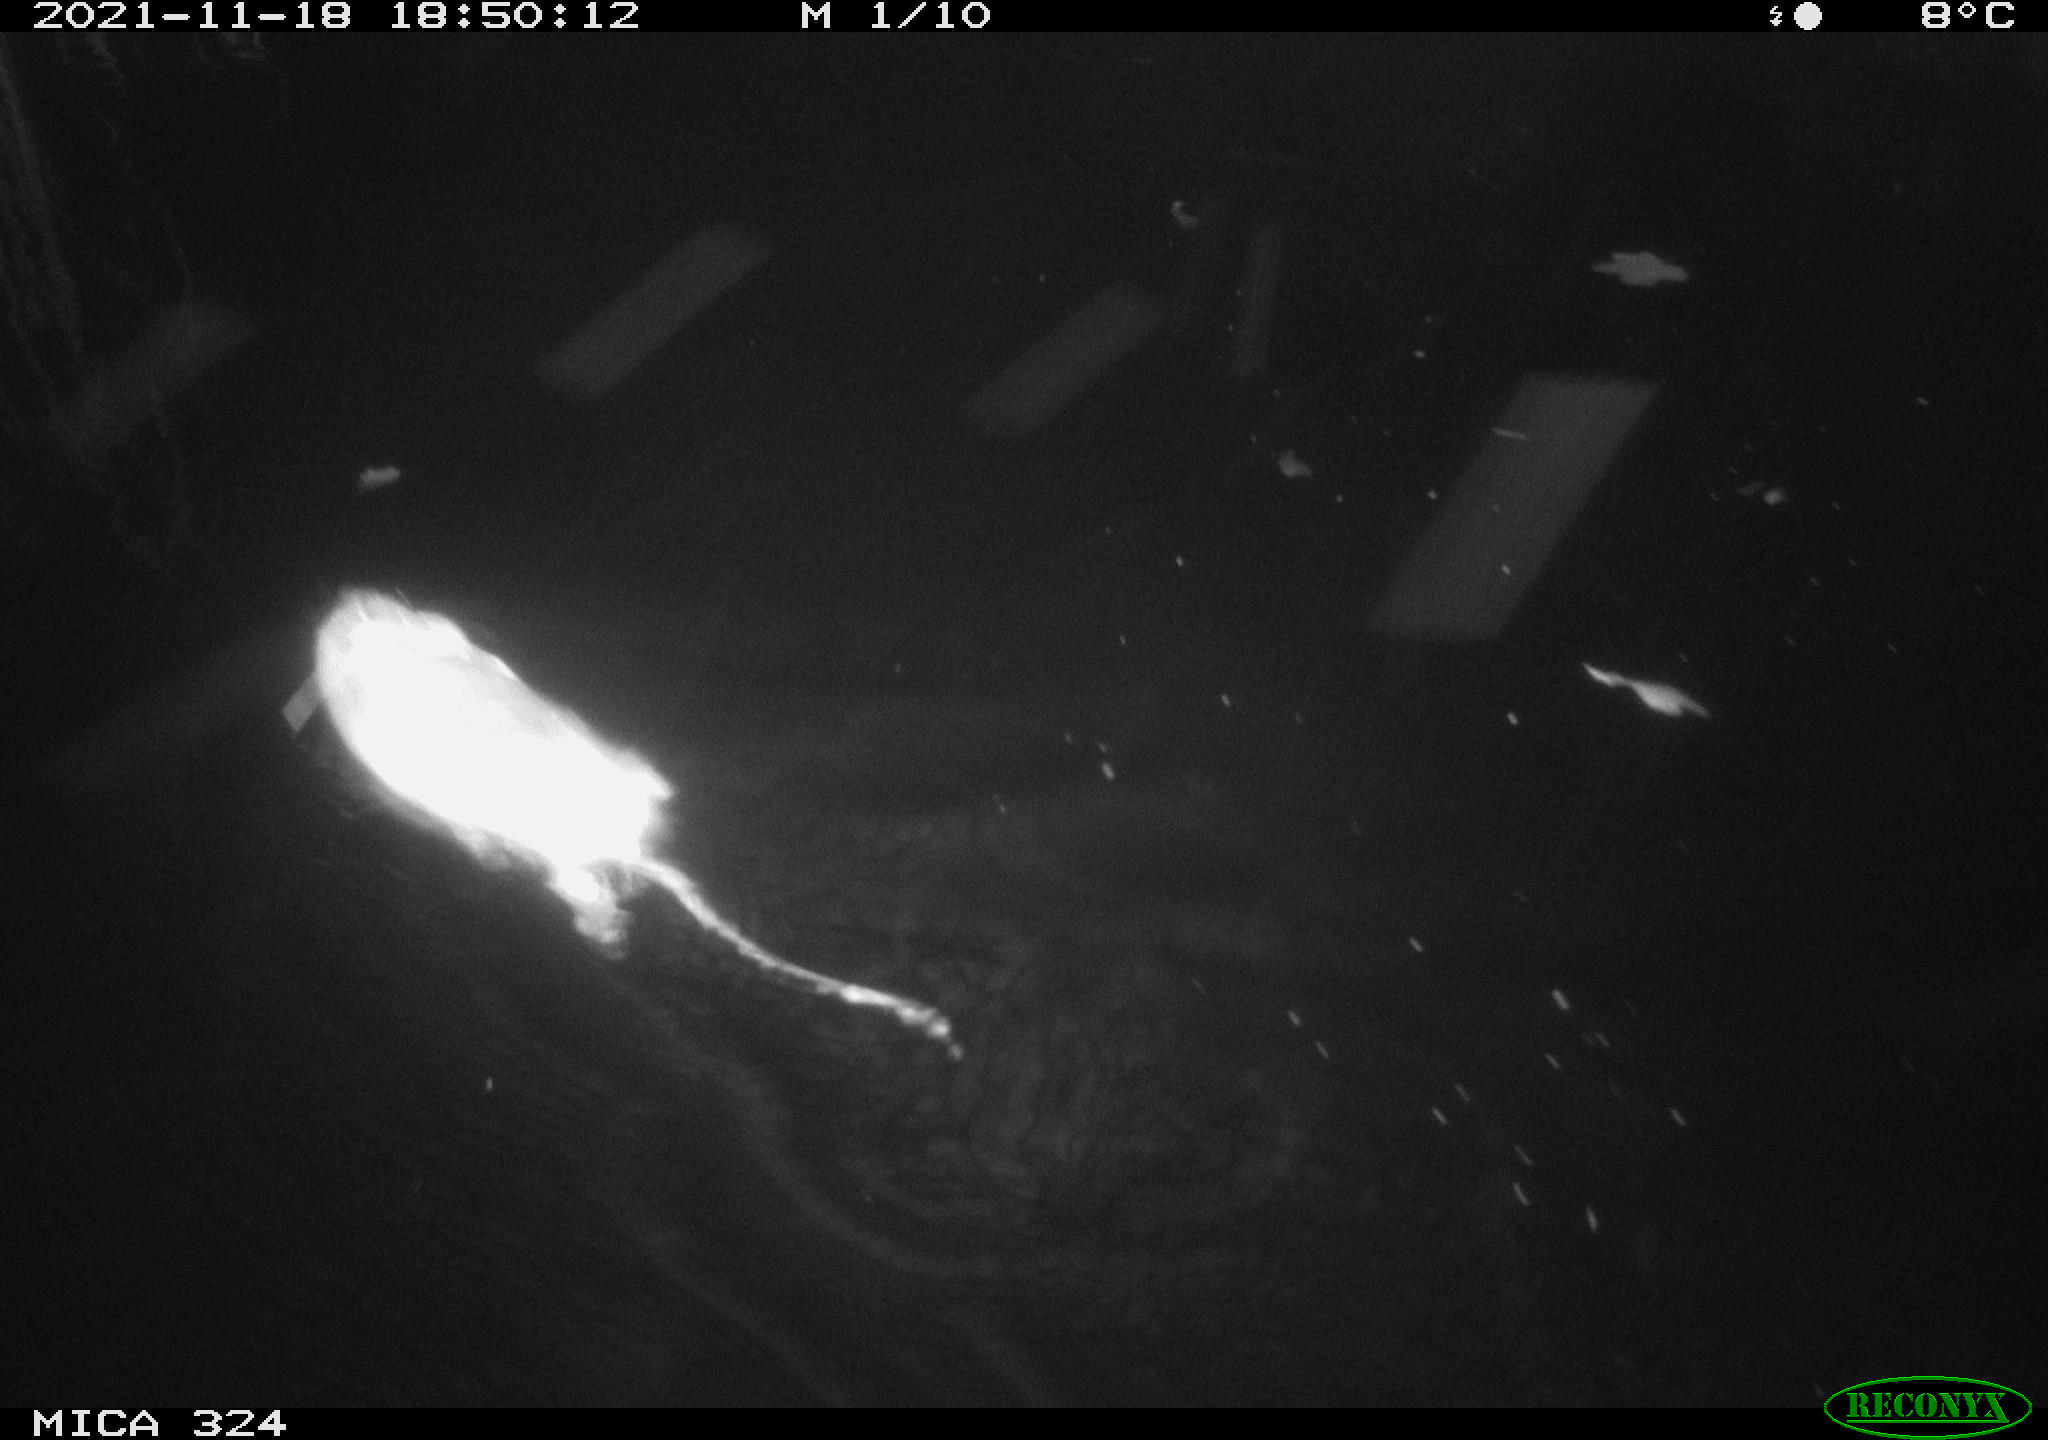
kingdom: Animalia
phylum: Chordata
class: Mammalia
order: Rodentia
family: Cricetidae
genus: Ondatra
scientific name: Ondatra zibethicus
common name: Muskrat
